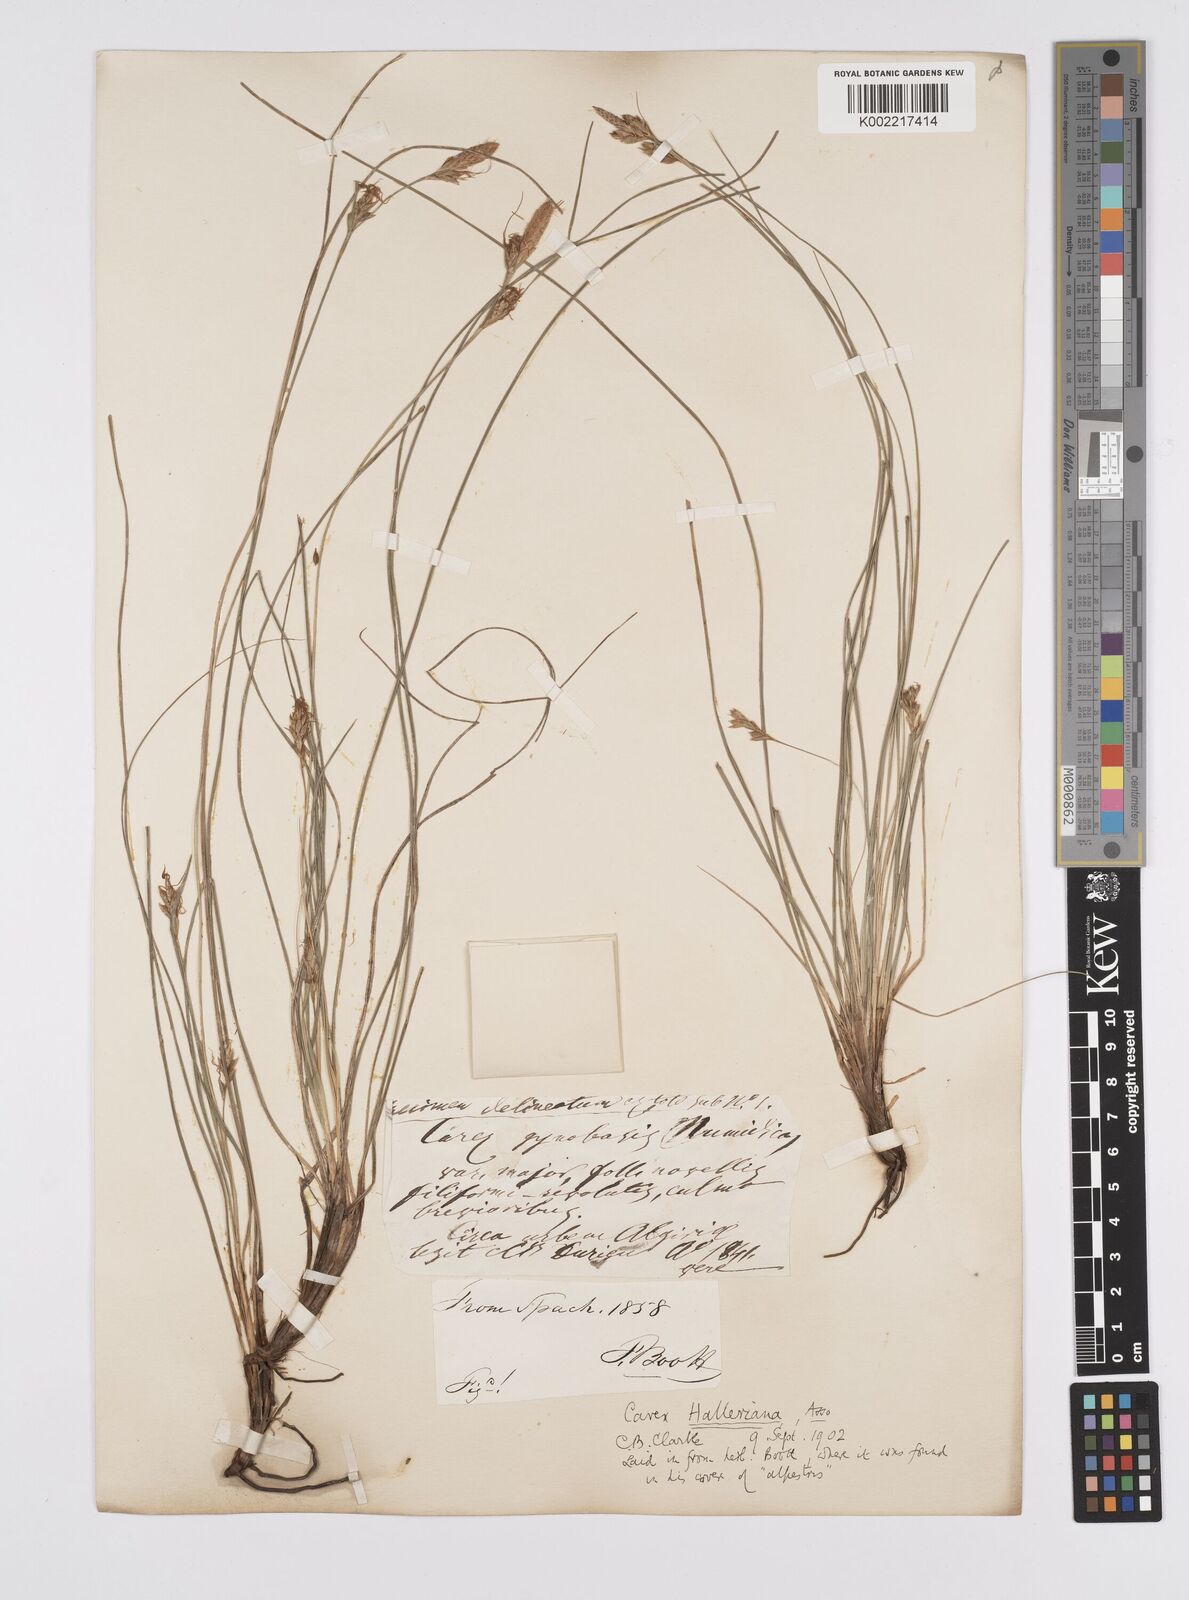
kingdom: Plantae
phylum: Tracheophyta
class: Liliopsida
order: Poales
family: Cyperaceae
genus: Carex
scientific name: Carex halleriana
